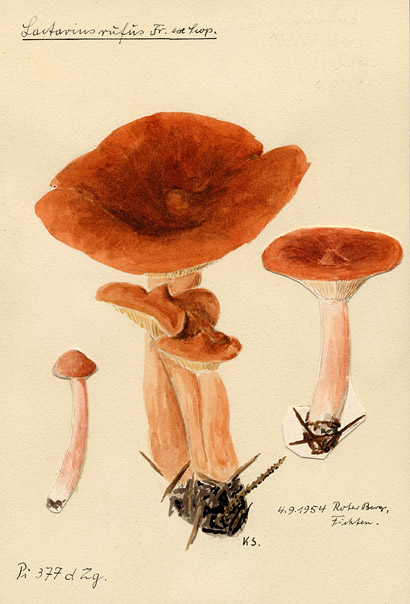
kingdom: Fungi
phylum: Basidiomycota
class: Agaricomycetes
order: Russulales
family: Russulaceae
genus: Lactarius
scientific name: Lactarius rufus
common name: Rufous milk-cap
